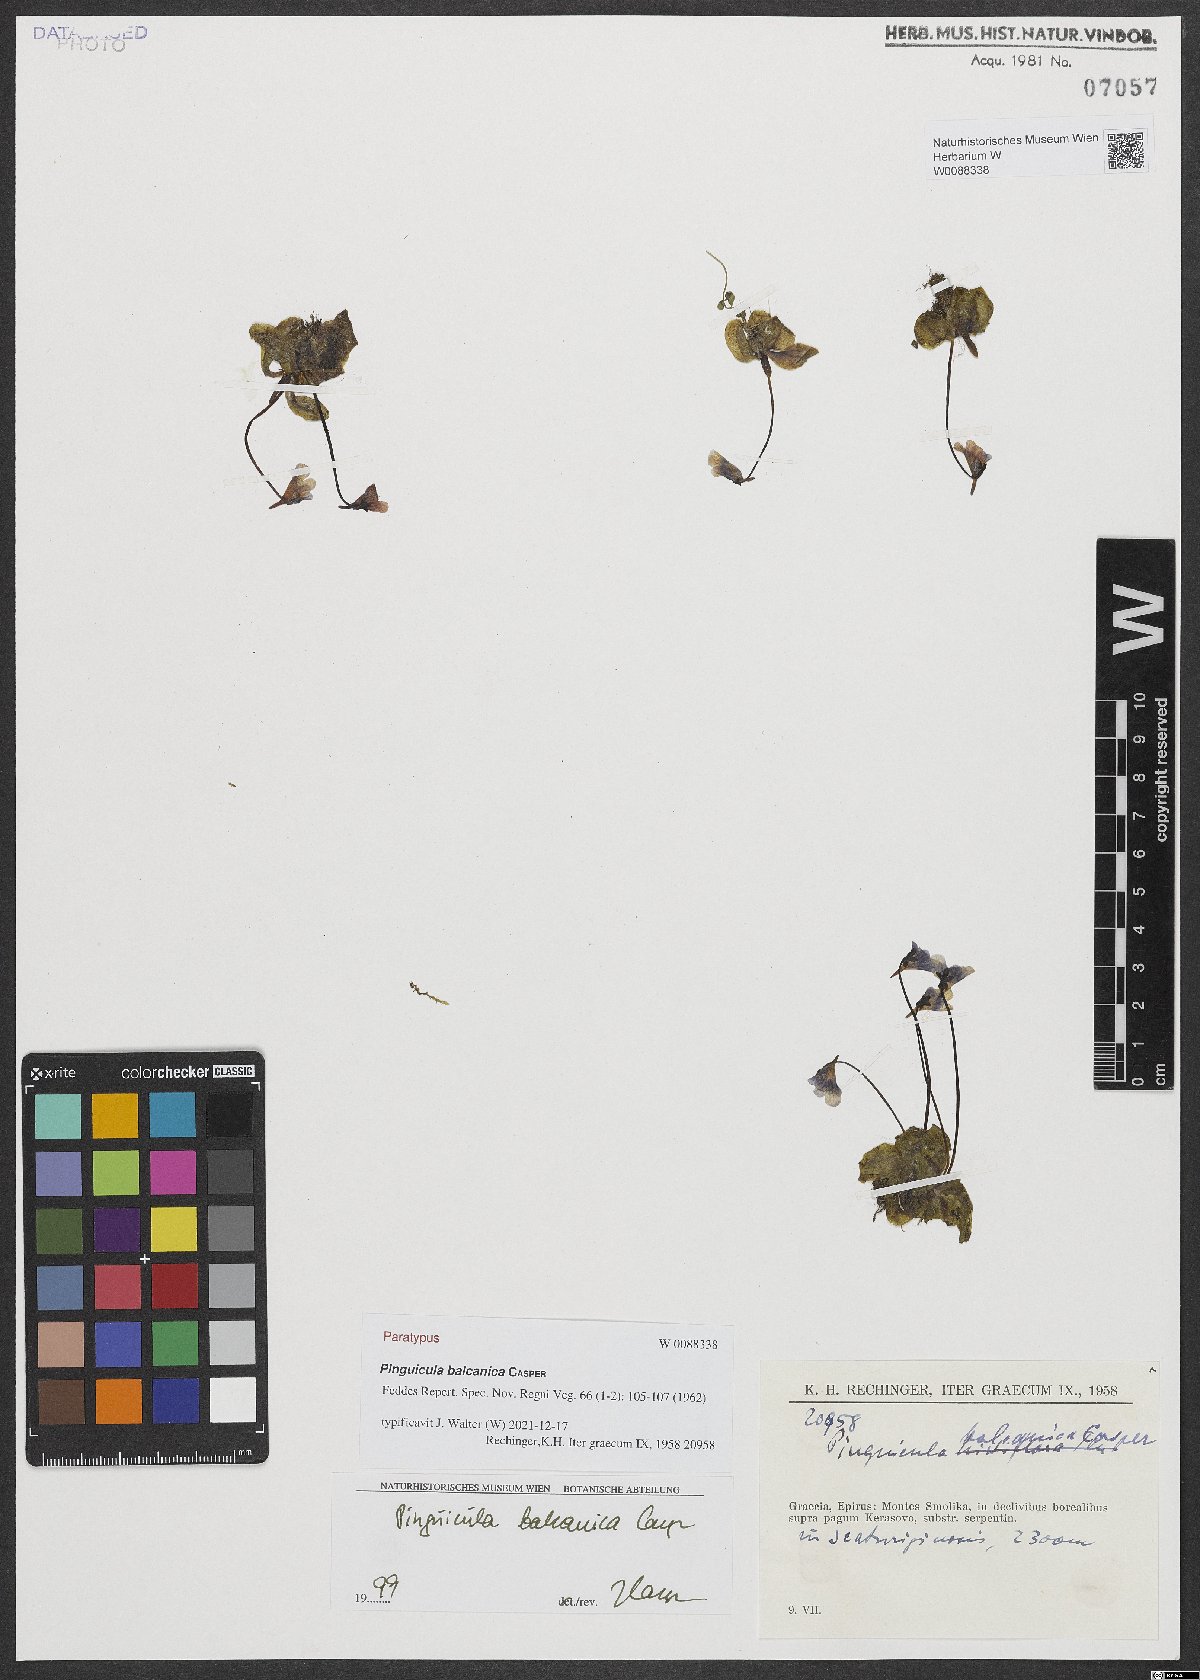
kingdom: Plantae
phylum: Tracheophyta
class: Magnoliopsida
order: Lamiales
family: Lentibulariaceae
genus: Pinguicula
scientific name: Pinguicula balcanica
